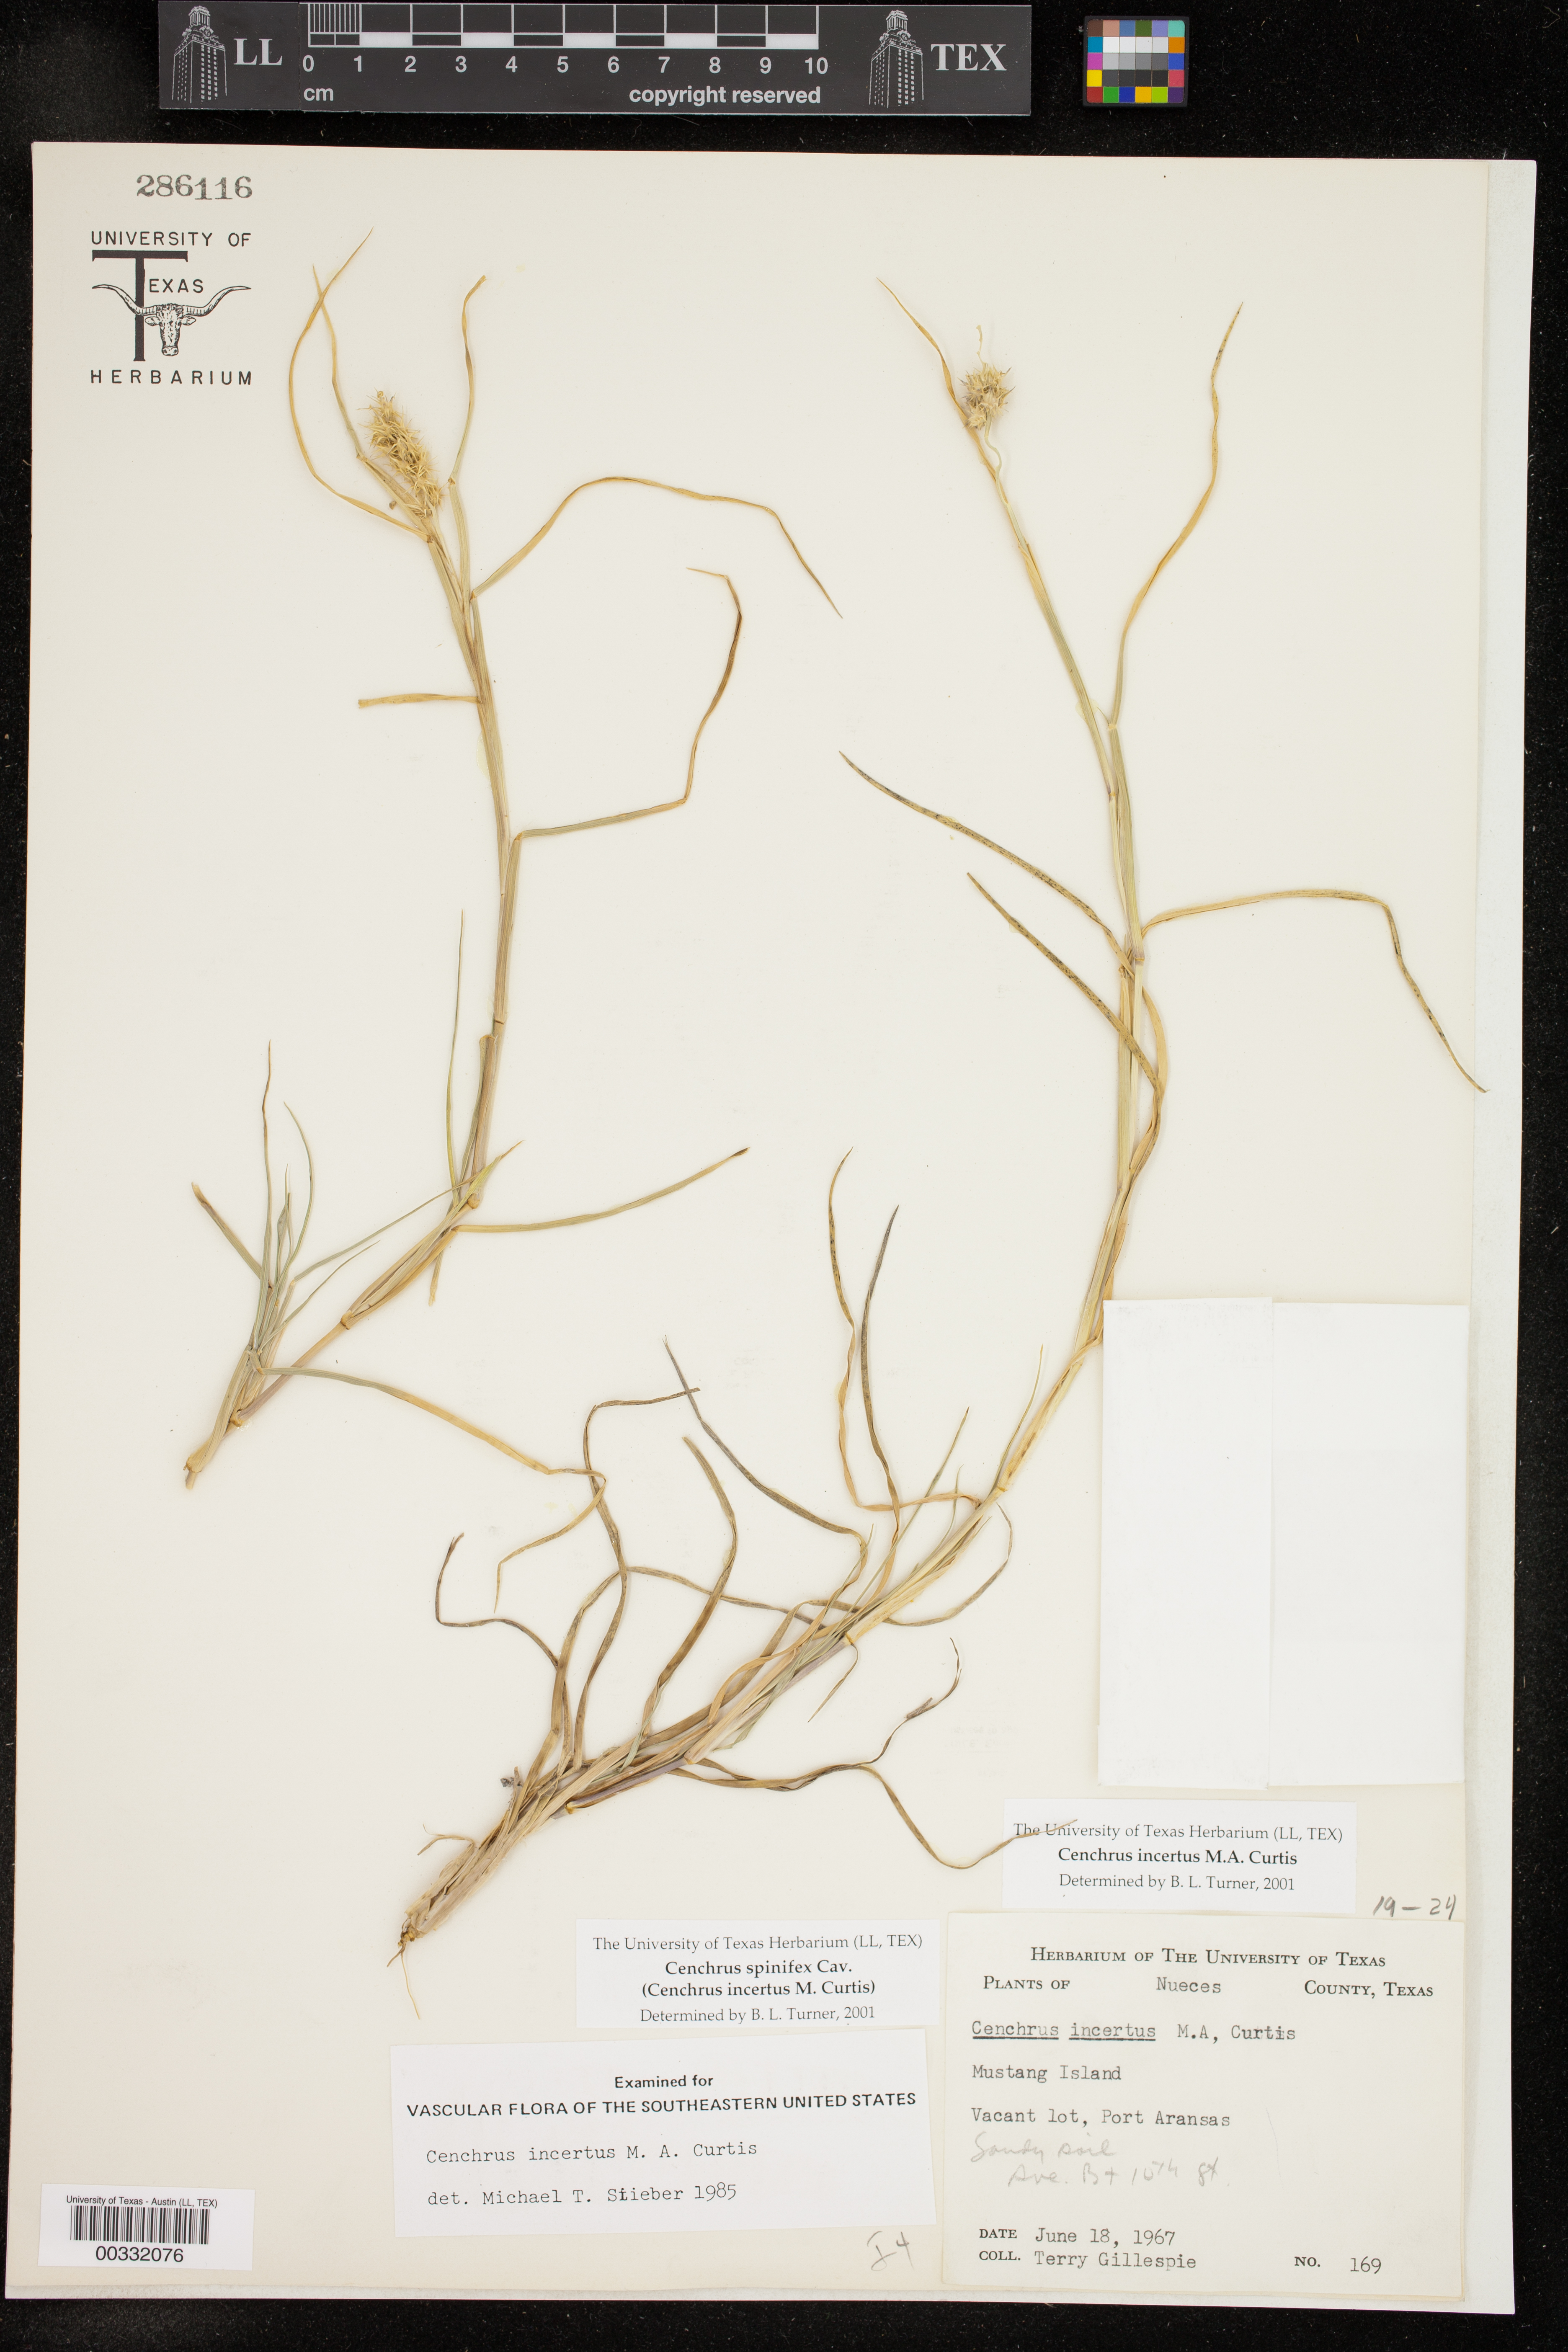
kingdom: Plantae
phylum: Tracheophyta
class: Liliopsida
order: Poales
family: Poaceae
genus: Cenchrus
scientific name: Cenchrus spinifex
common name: Coast sandbur
